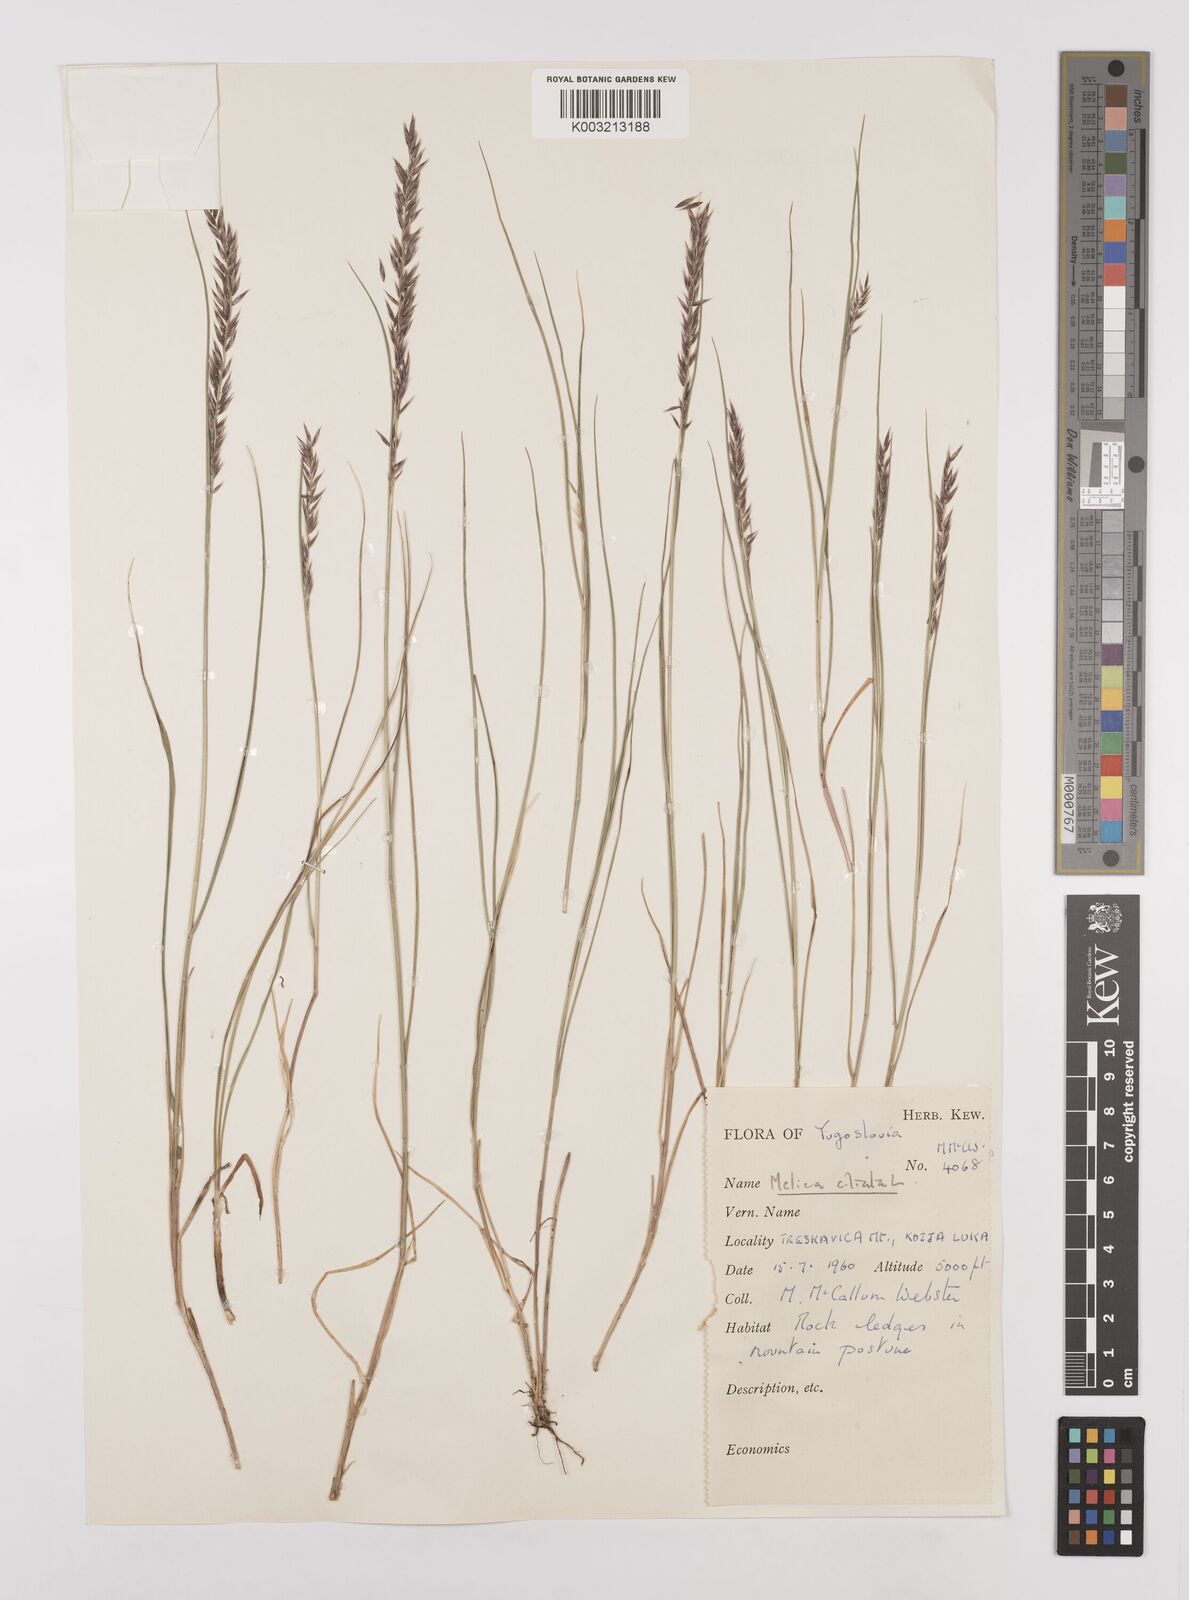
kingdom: Plantae
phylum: Tracheophyta
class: Liliopsida
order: Poales
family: Poaceae
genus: Melica
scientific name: Melica ciliata
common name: Hairy melicgrass
